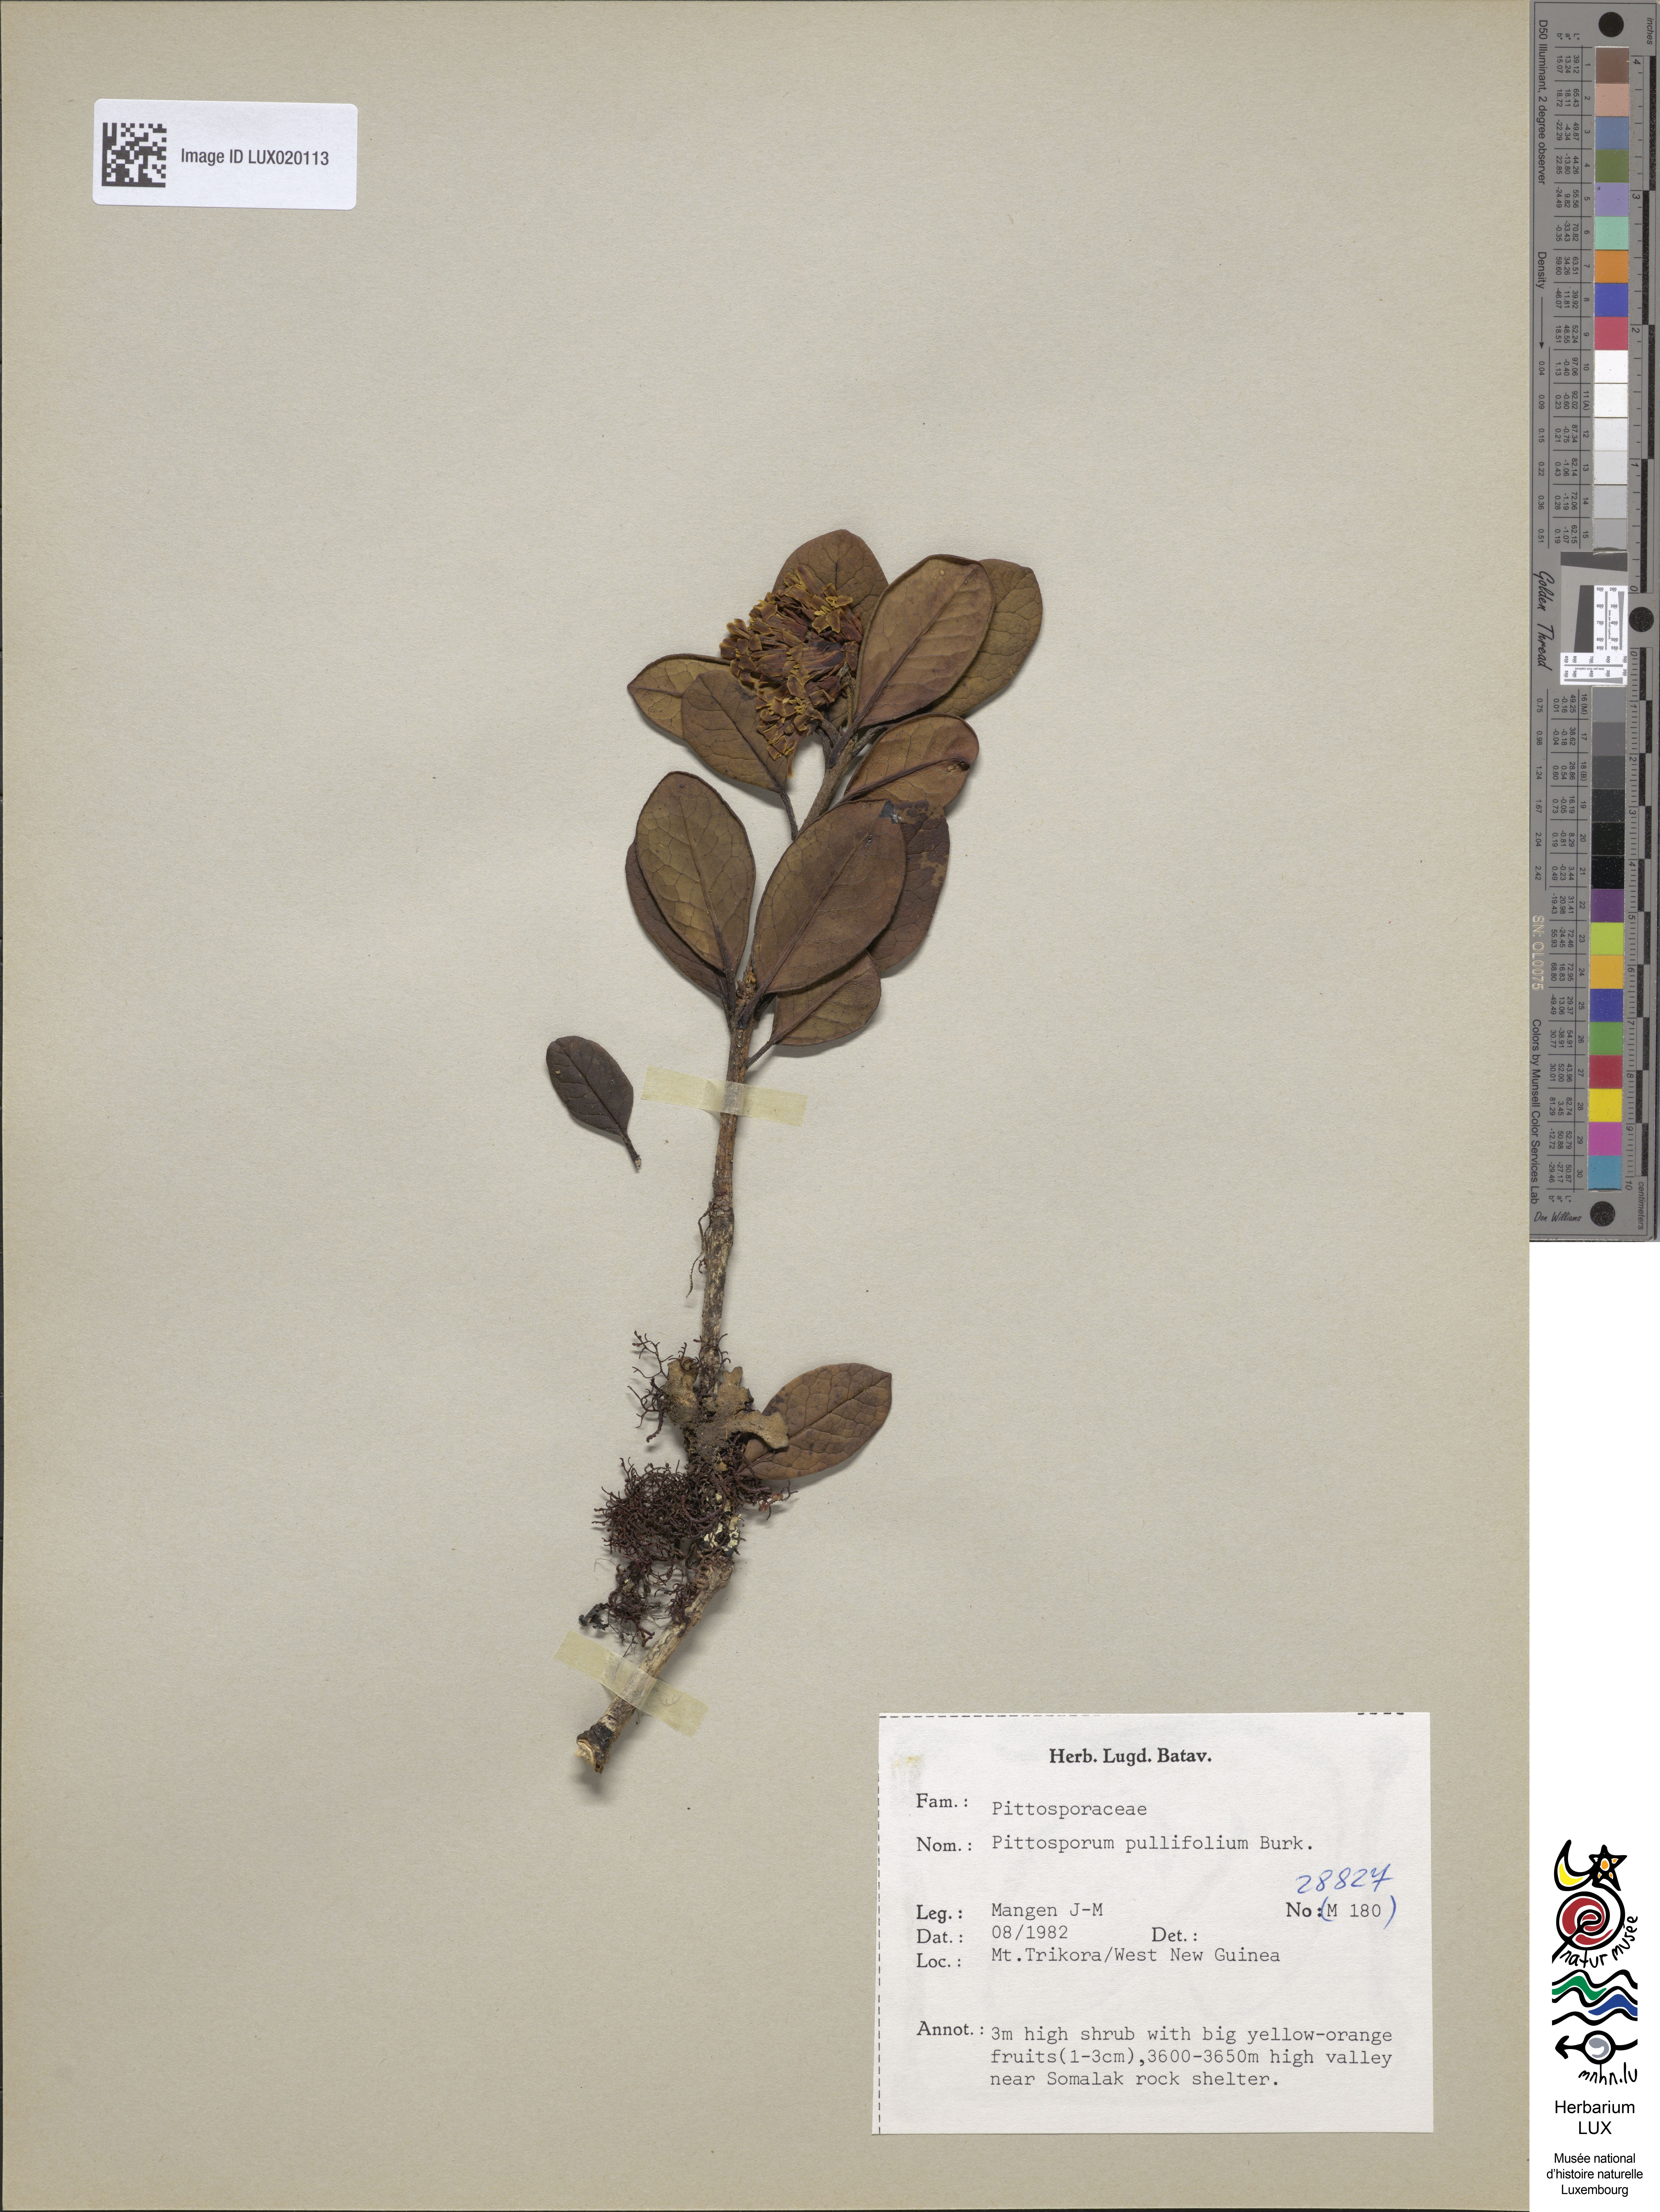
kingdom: Plantae
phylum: Tracheophyta
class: Magnoliopsida
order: Apiales
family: Pittosporaceae
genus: Pittosporum
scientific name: Pittosporum pullifolium
